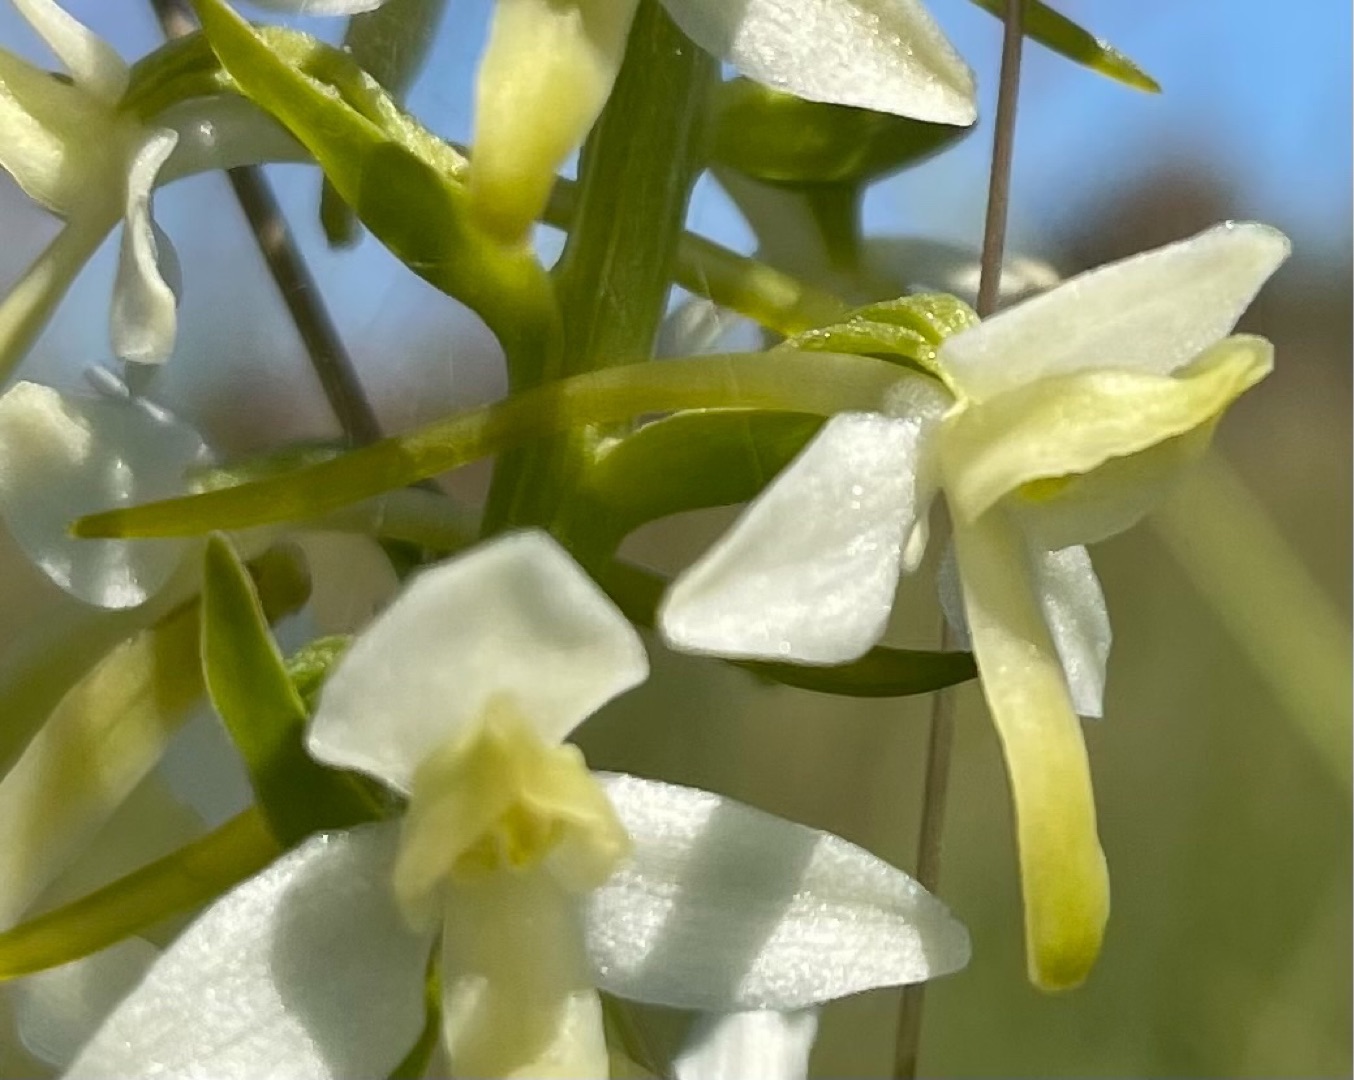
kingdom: Plantae
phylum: Tracheophyta
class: Liliopsida
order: Asparagales
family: Orchidaceae
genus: Platanthera
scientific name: Platanthera bifolia
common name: Bakke-gøgelilje
